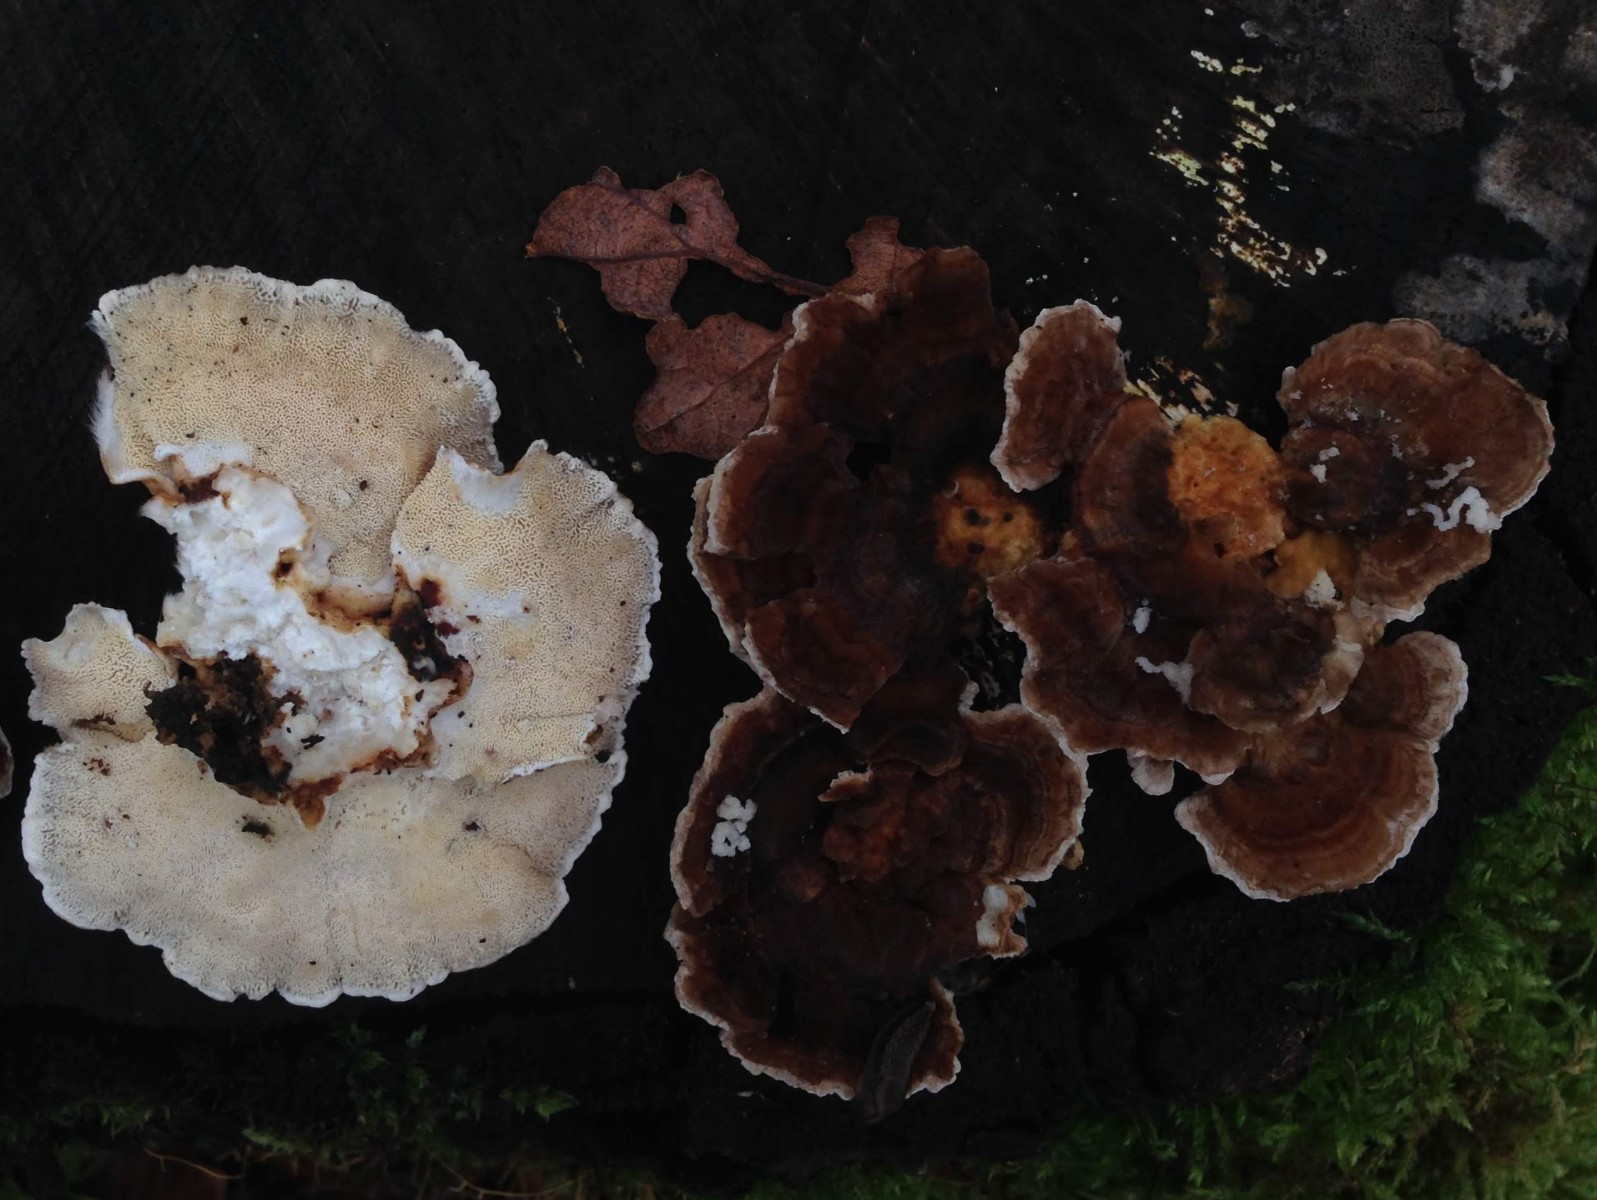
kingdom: Fungi
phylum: Basidiomycota
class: Agaricomycetes
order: Polyporales
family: Polyporaceae
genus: Trametes
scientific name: Trametes versicolor
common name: broget læderporesvamp
